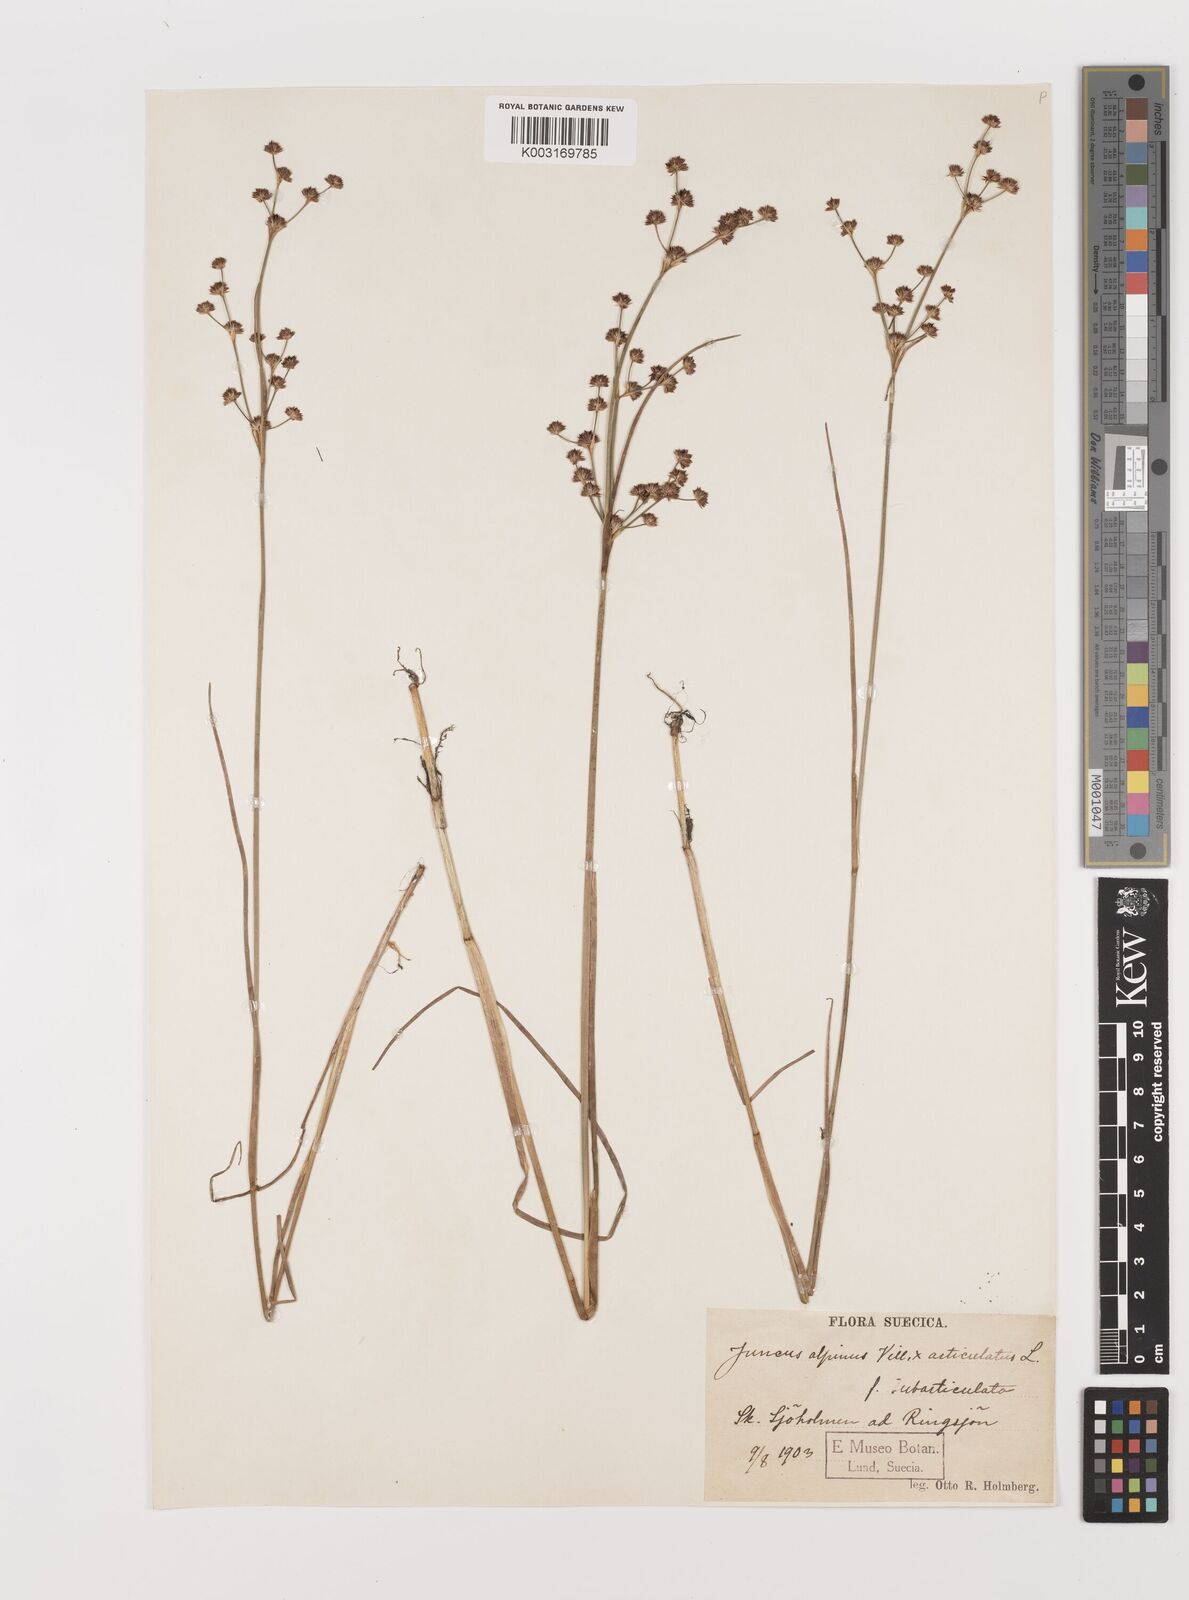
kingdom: Plantae
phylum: Tracheophyta
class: Liliopsida
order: Poales
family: Juncaceae
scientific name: Juncaceae
